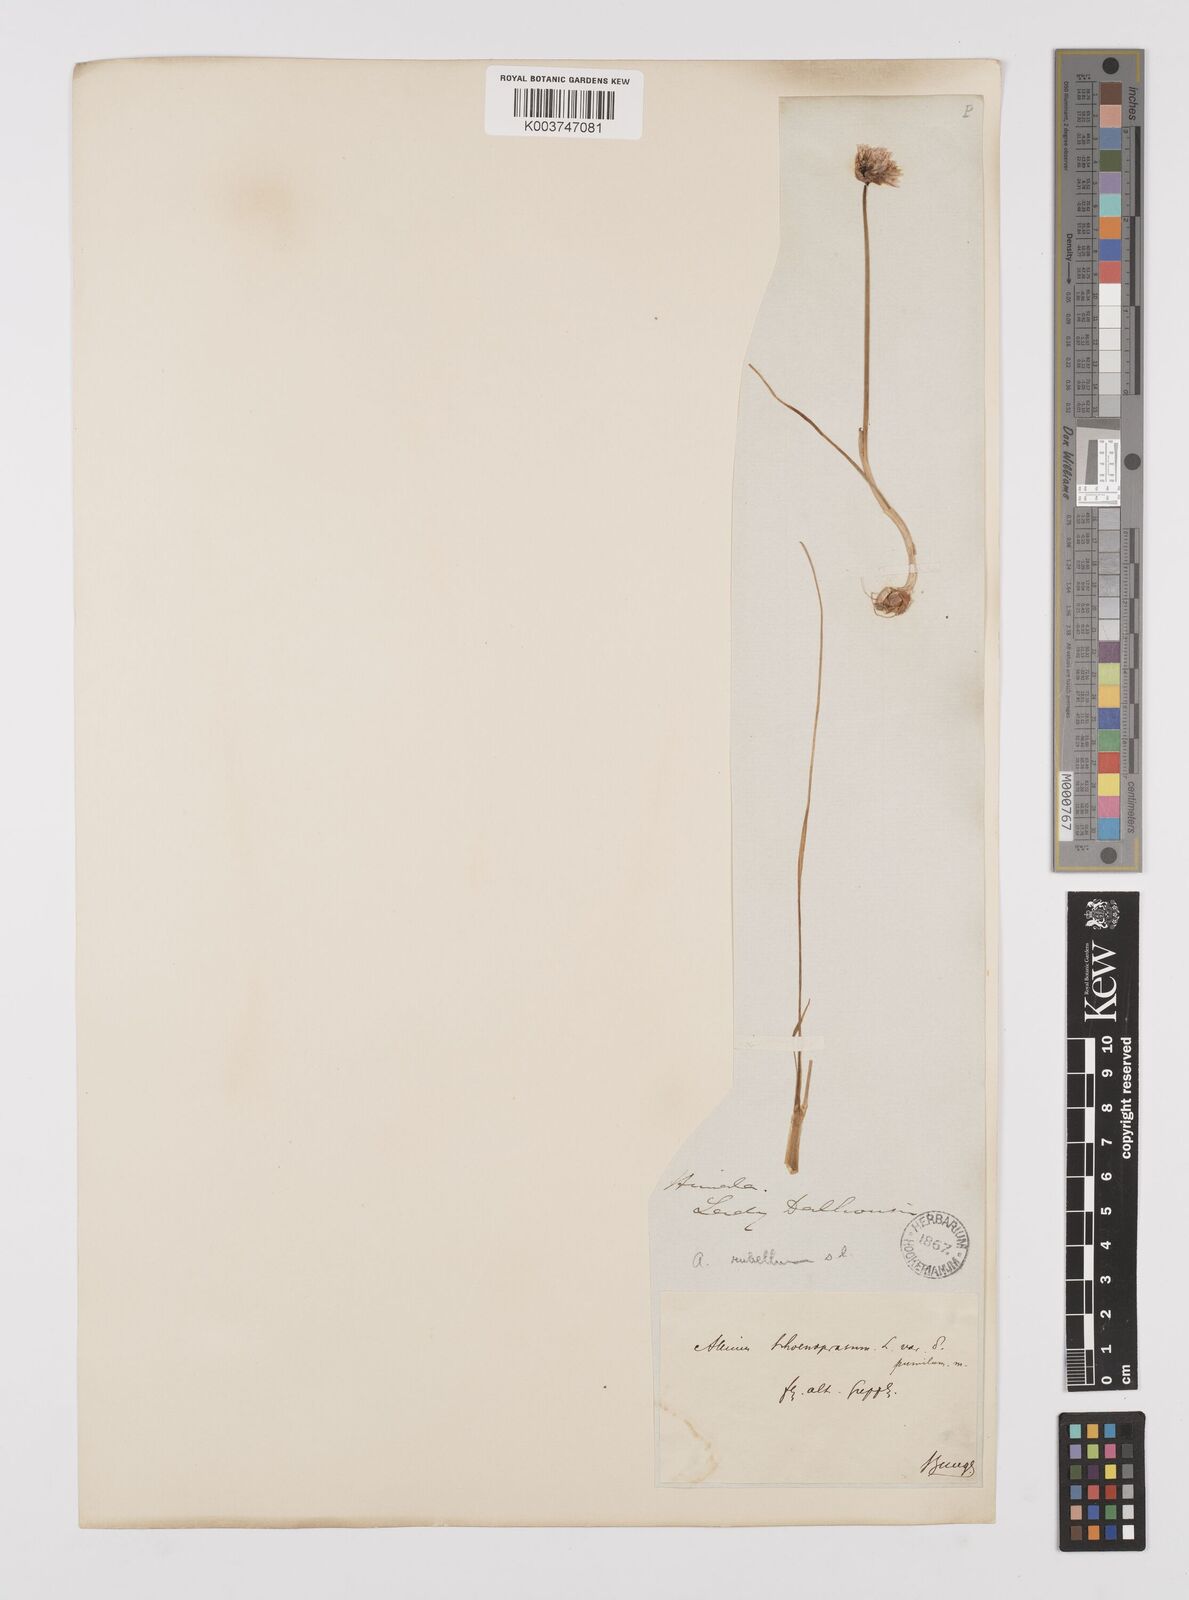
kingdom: Plantae
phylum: Tracheophyta
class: Liliopsida
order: Asparagales
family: Amaryllidaceae
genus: Allium
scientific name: Allium rubellum
